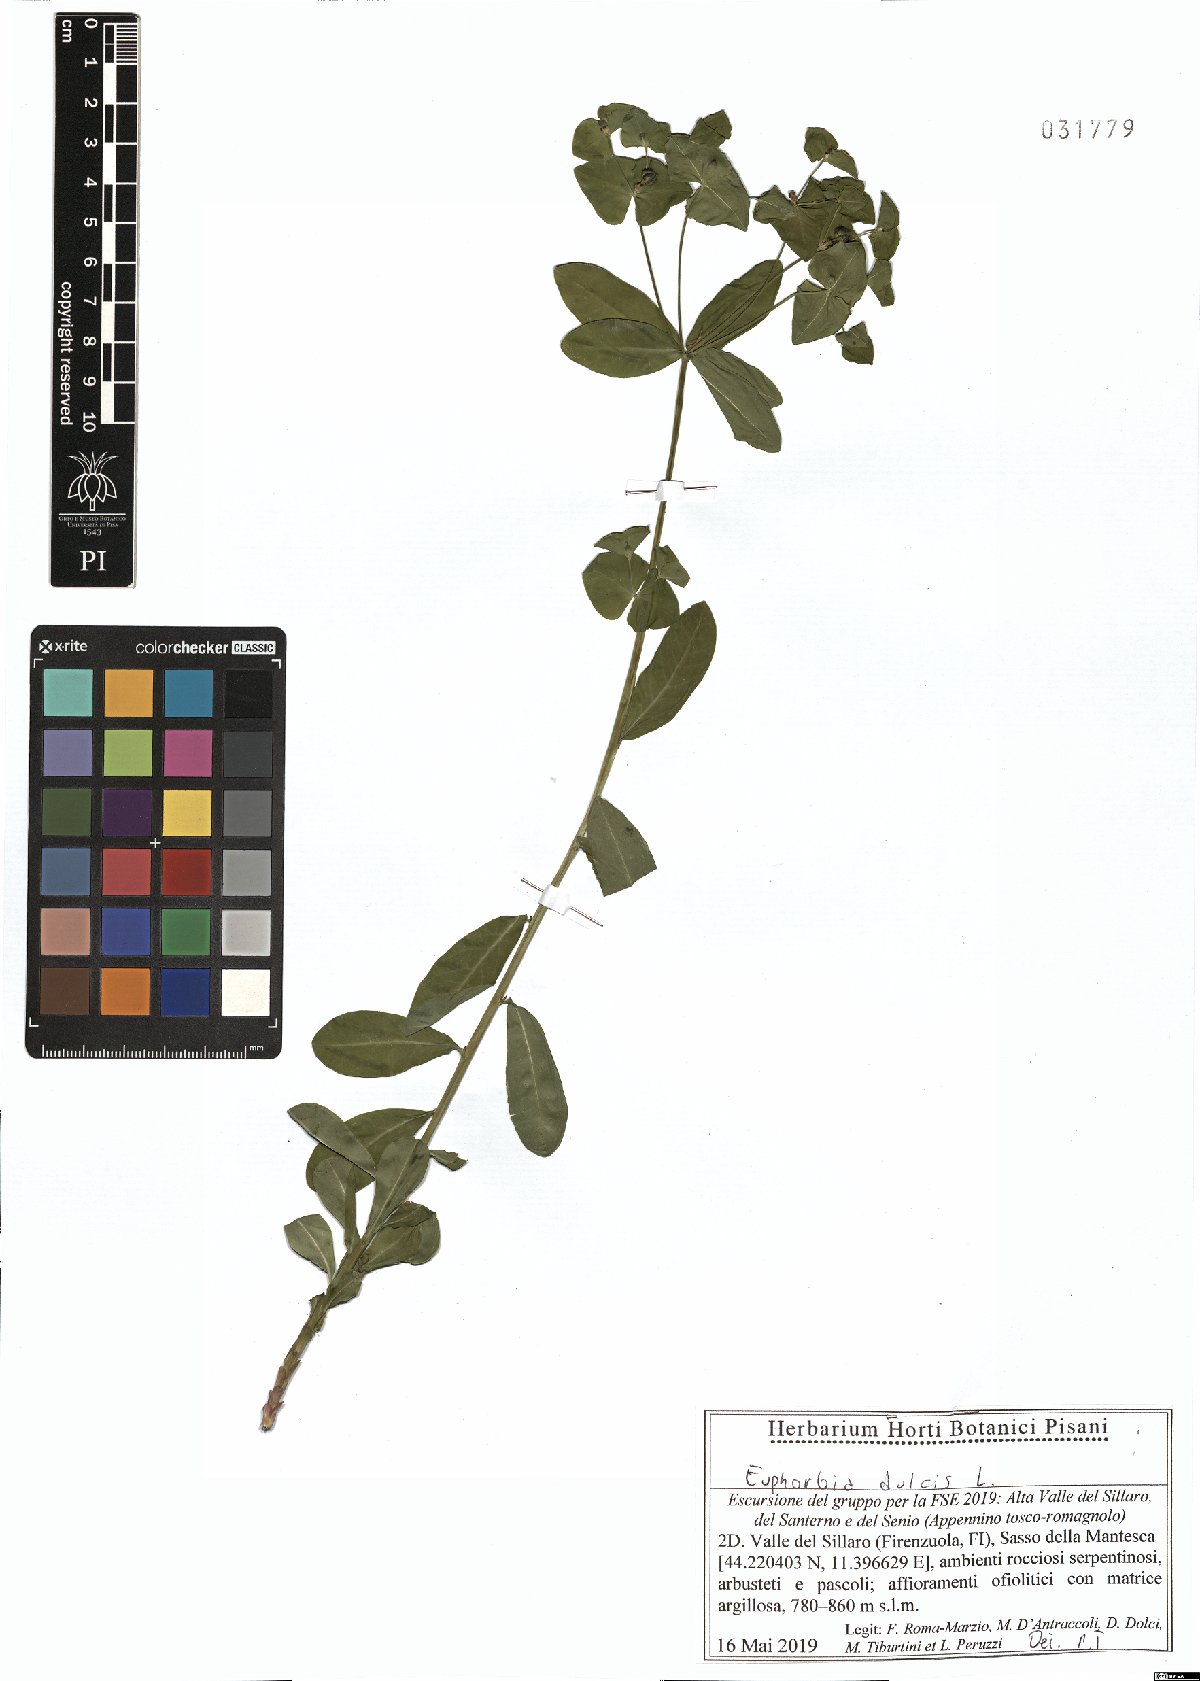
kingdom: Plantae
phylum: Tracheophyta
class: Magnoliopsida
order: Malpighiales
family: Euphorbiaceae
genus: Euphorbia
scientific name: Euphorbia dulcis
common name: Sweet spurge
